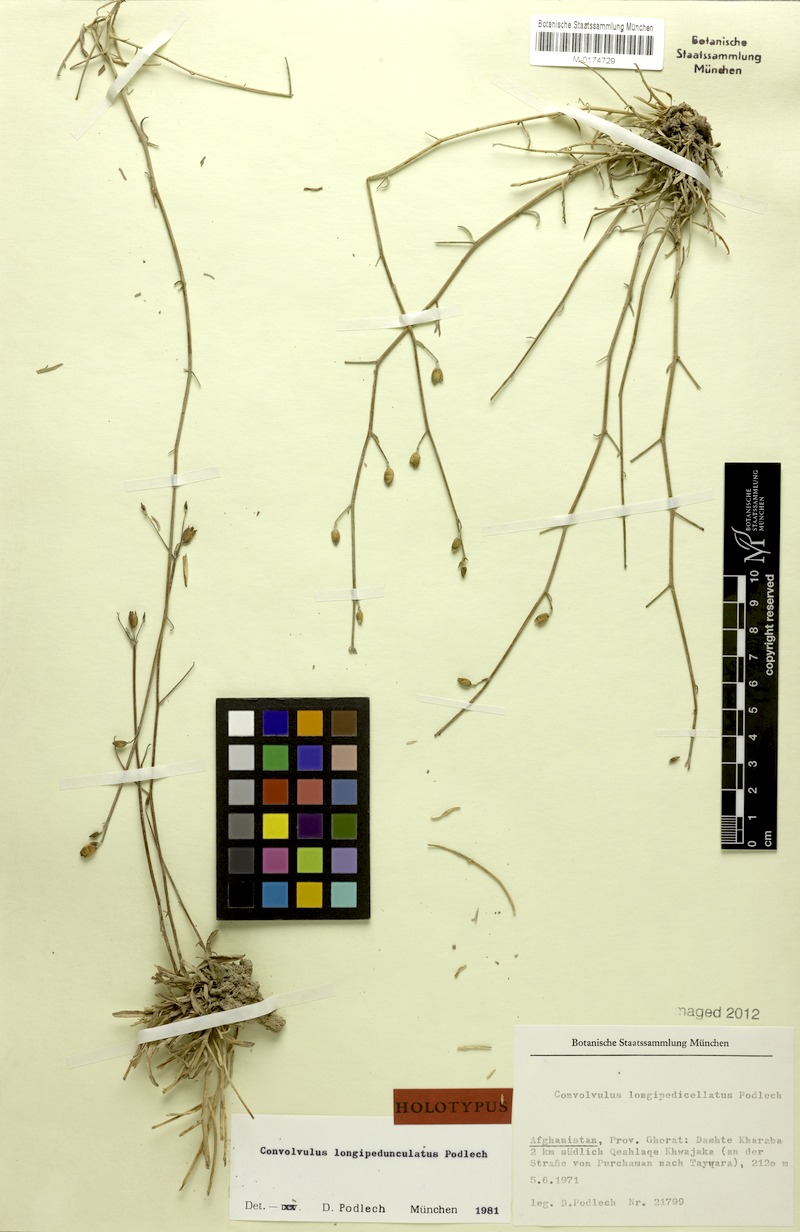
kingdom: Plantae
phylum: Tracheophyta
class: Magnoliopsida
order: Solanales
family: Convolvulaceae
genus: Convolvulus
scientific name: Convolvulus eremophilus
